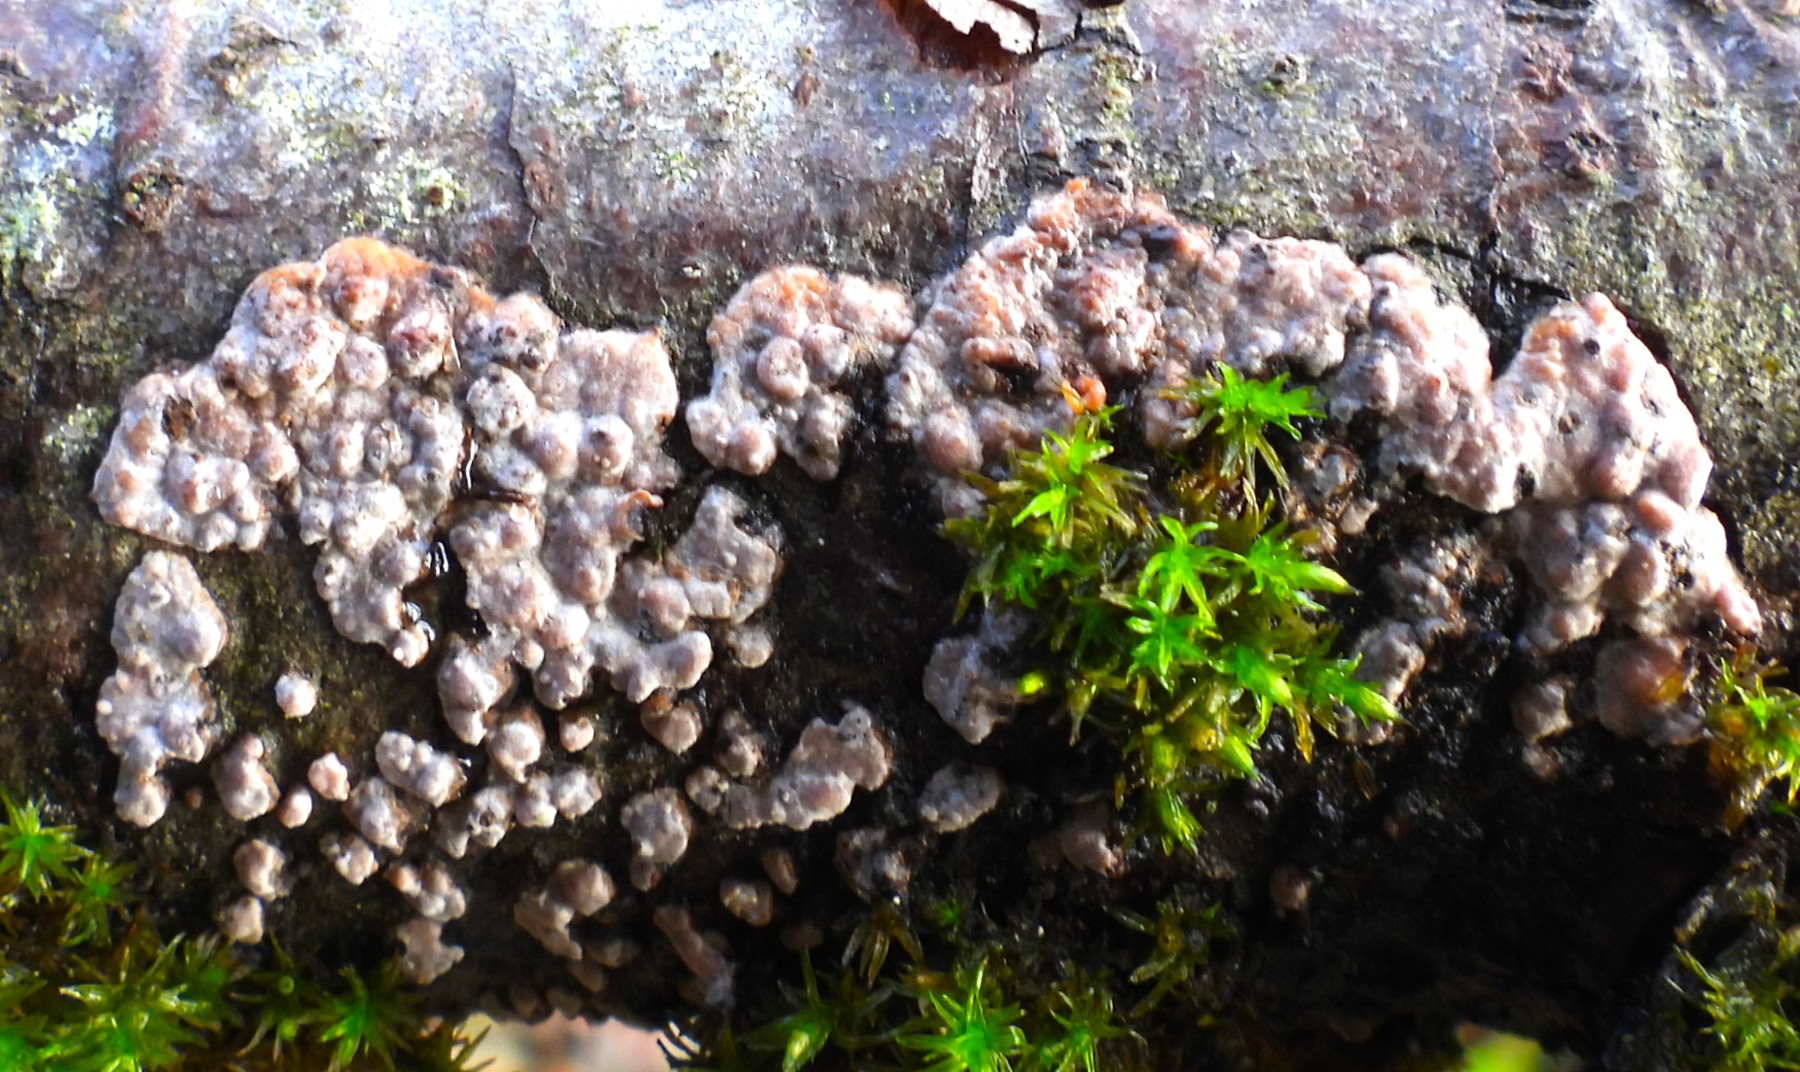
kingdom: Fungi
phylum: Basidiomycota
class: Agaricomycetes
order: Russulales
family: Peniophoraceae
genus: Peniophora
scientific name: Peniophora polygonia
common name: polygon-voksskind
